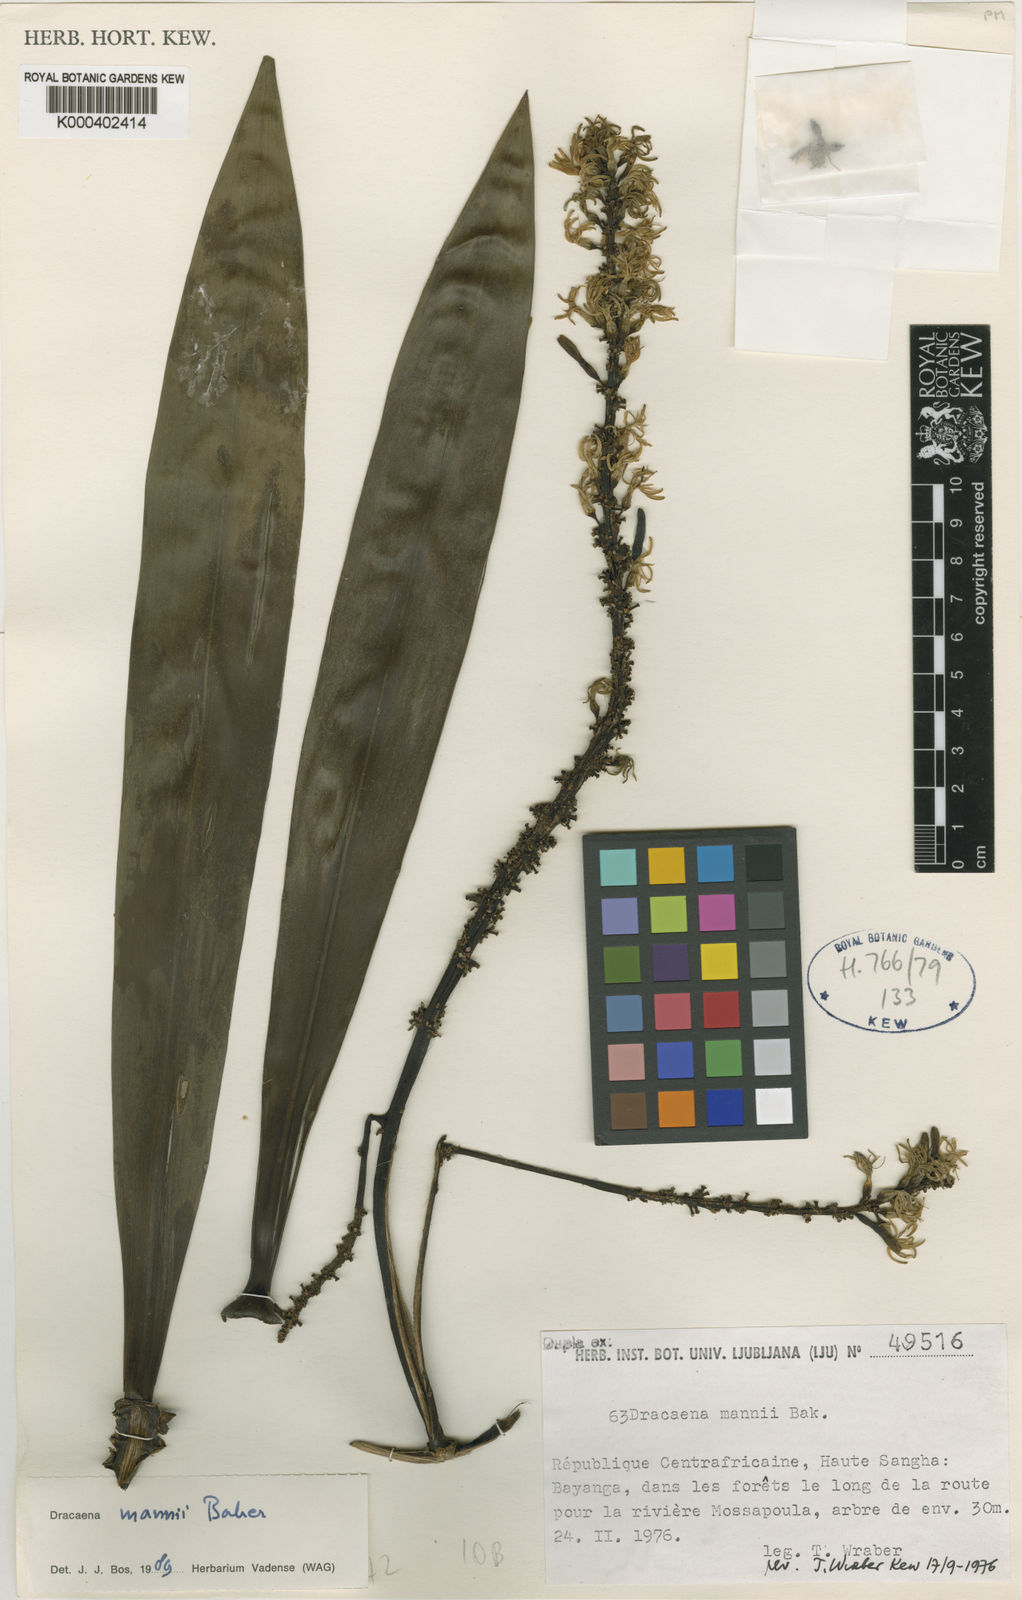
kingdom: Plantae
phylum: Tracheophyta
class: Liliopsida
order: Asparagales
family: Asparagaceae
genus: Dracaena
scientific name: Dracaena mannii
